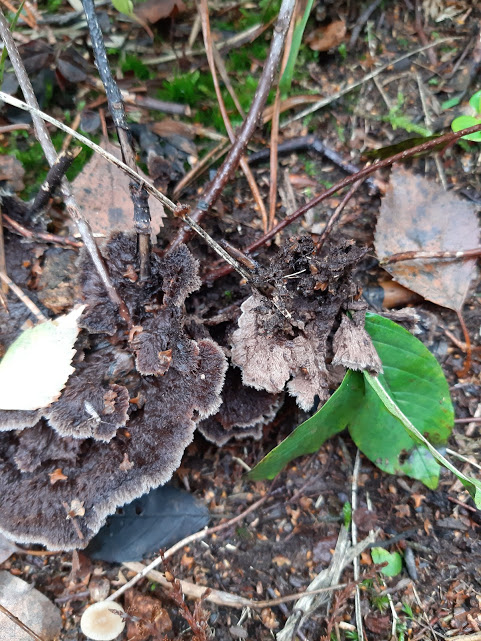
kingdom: Fungi
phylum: Basidiomycota
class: Agaricomycetes
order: Thelephorales
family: Thelephoraceae
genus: Thelephora
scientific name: Thelephora terrestris
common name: fliget frynsesvamp
